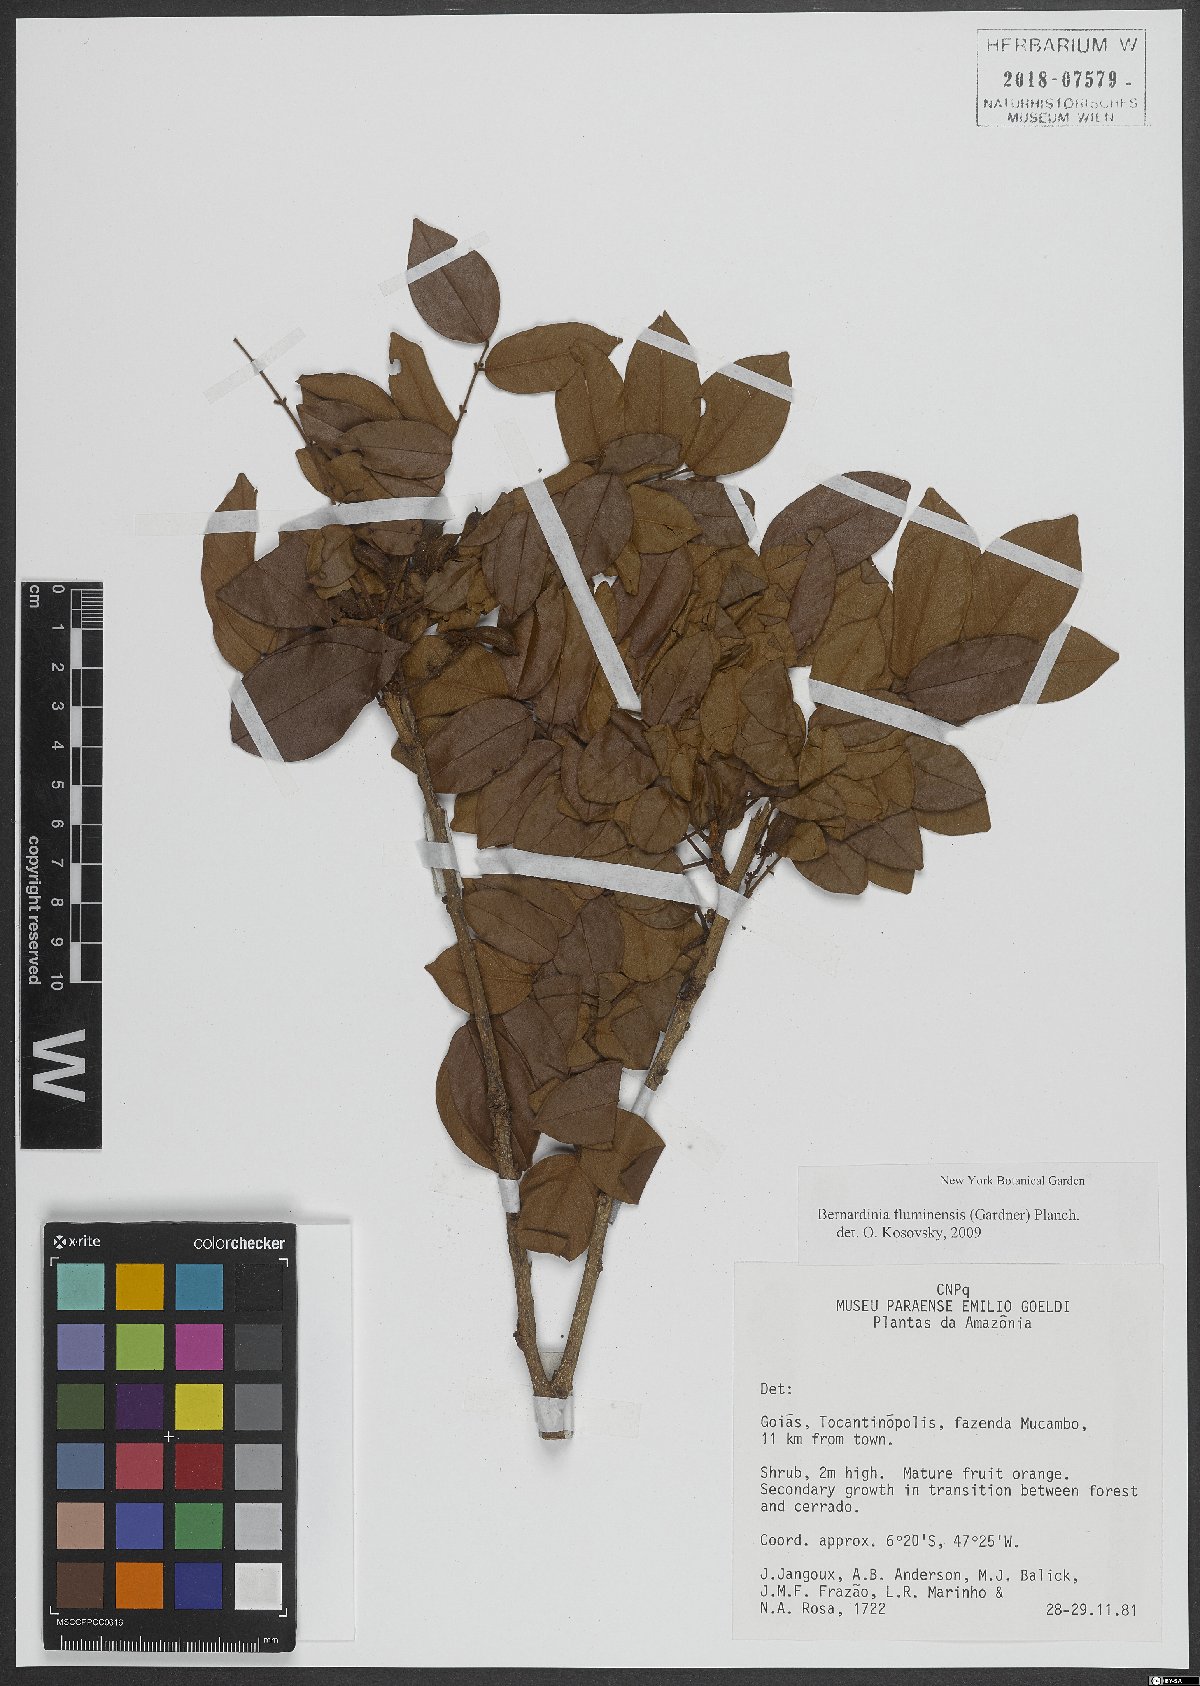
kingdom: Plantae
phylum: Tracheophyta
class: Magnoliopsida
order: Oxalidales
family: Connaraceae
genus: Rourea
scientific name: Rourea fluminensis
